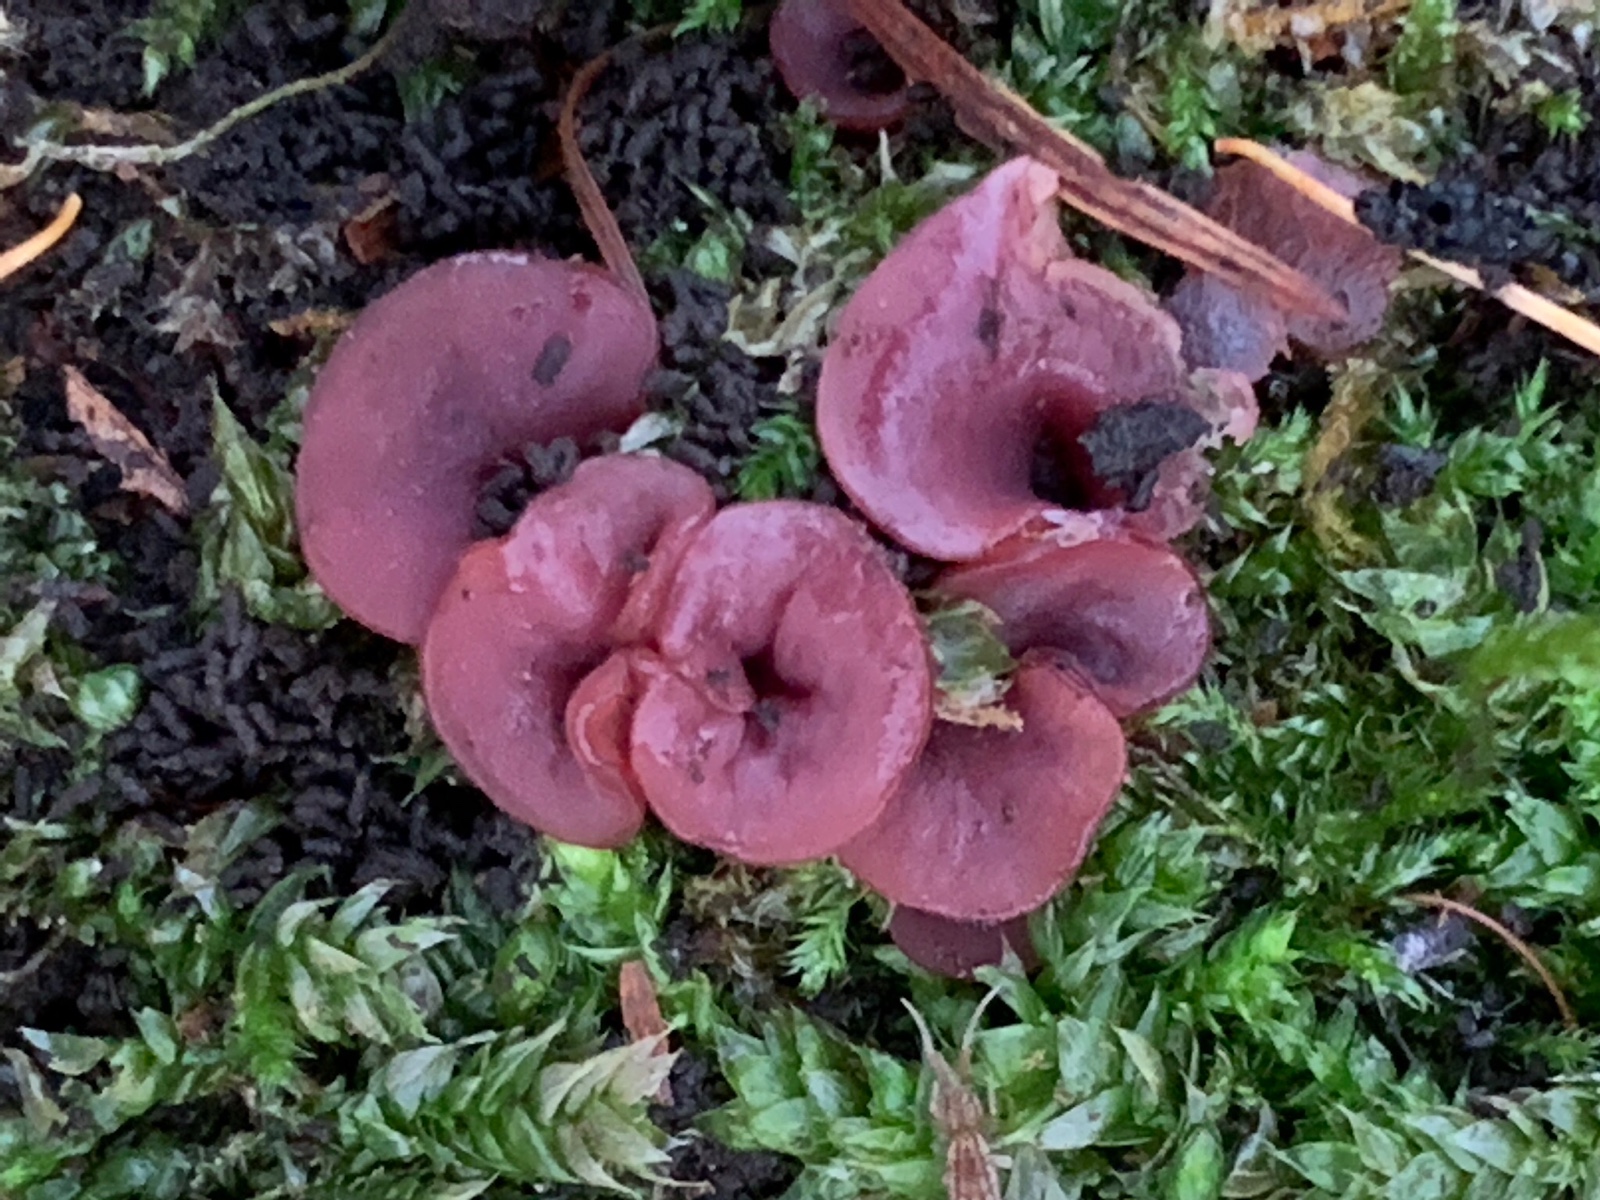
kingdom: Fungi
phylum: Ascomycota
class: Leotiomycetes
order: Helotiales
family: Gelatinodiscaceae
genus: Ascocoryne
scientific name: Ascocoryne cylichnium
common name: stor sejskive
